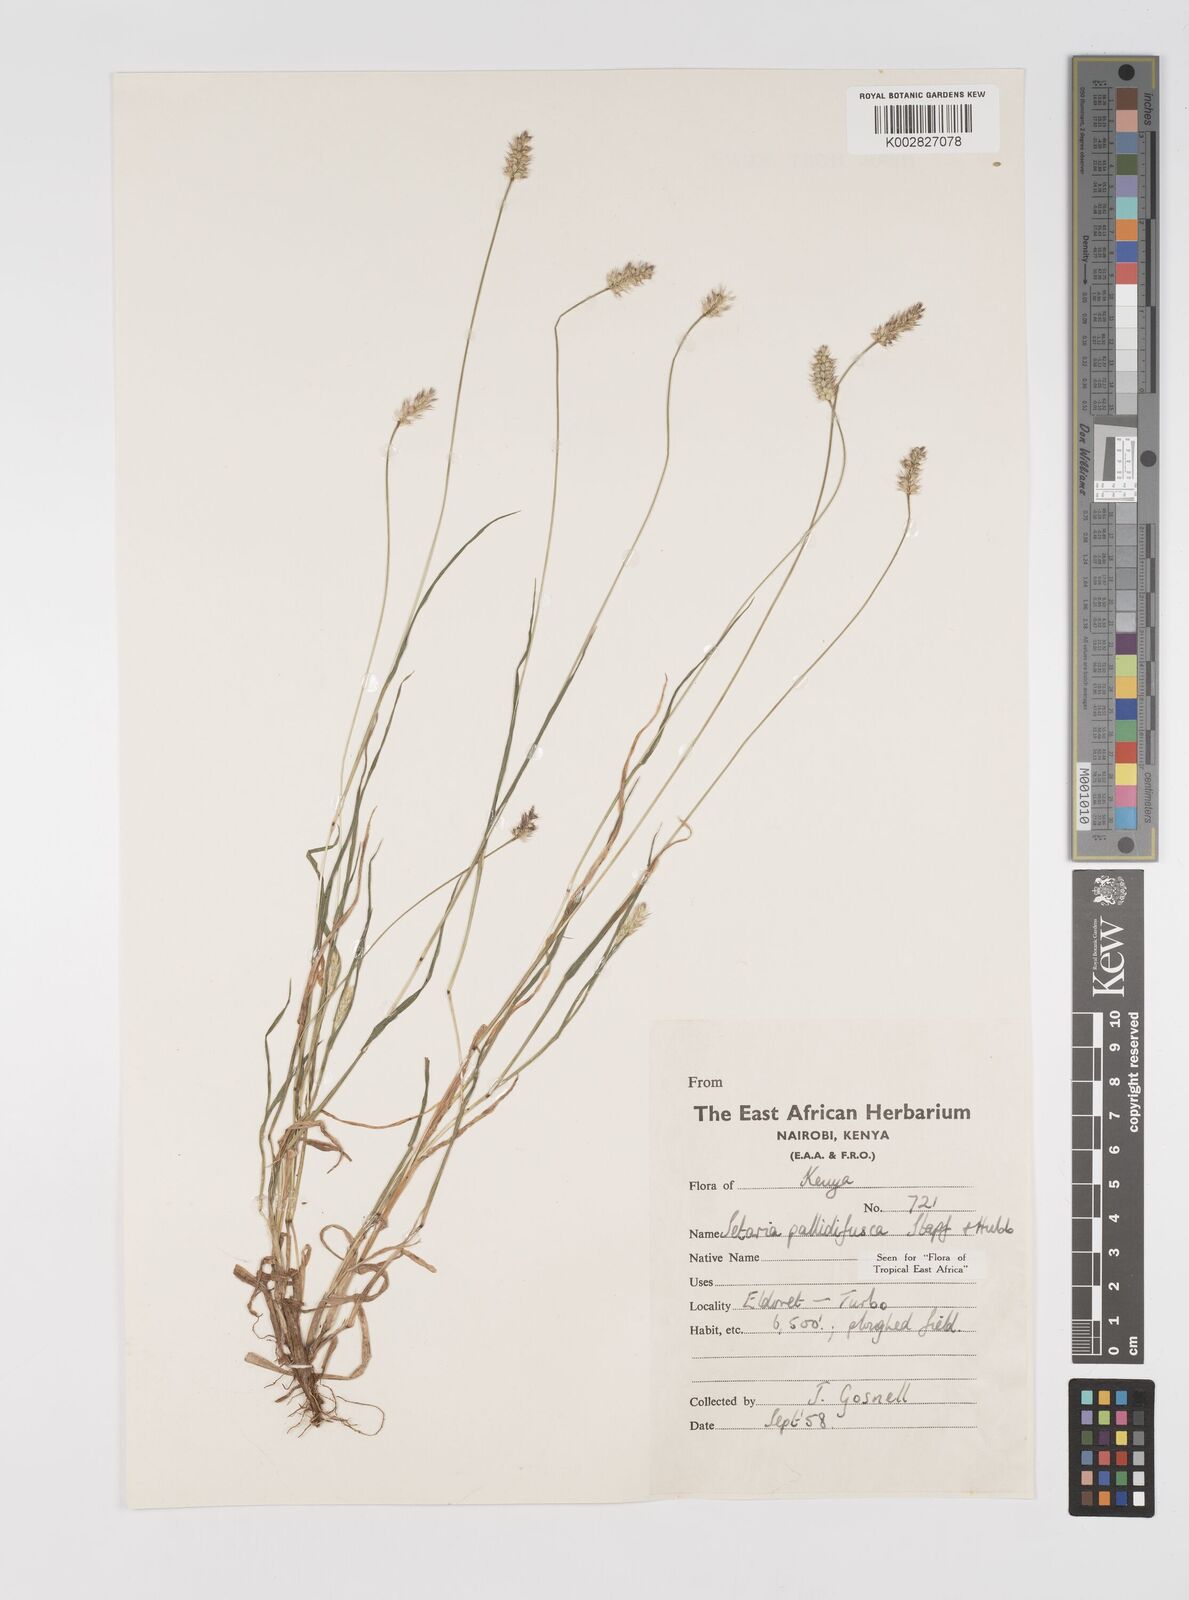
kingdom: Plantae
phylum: Tracheophyta
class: Liliopsida
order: Poales
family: Poaceae
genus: Setaria
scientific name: Setaria pumila
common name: Yellow bristle-grass
